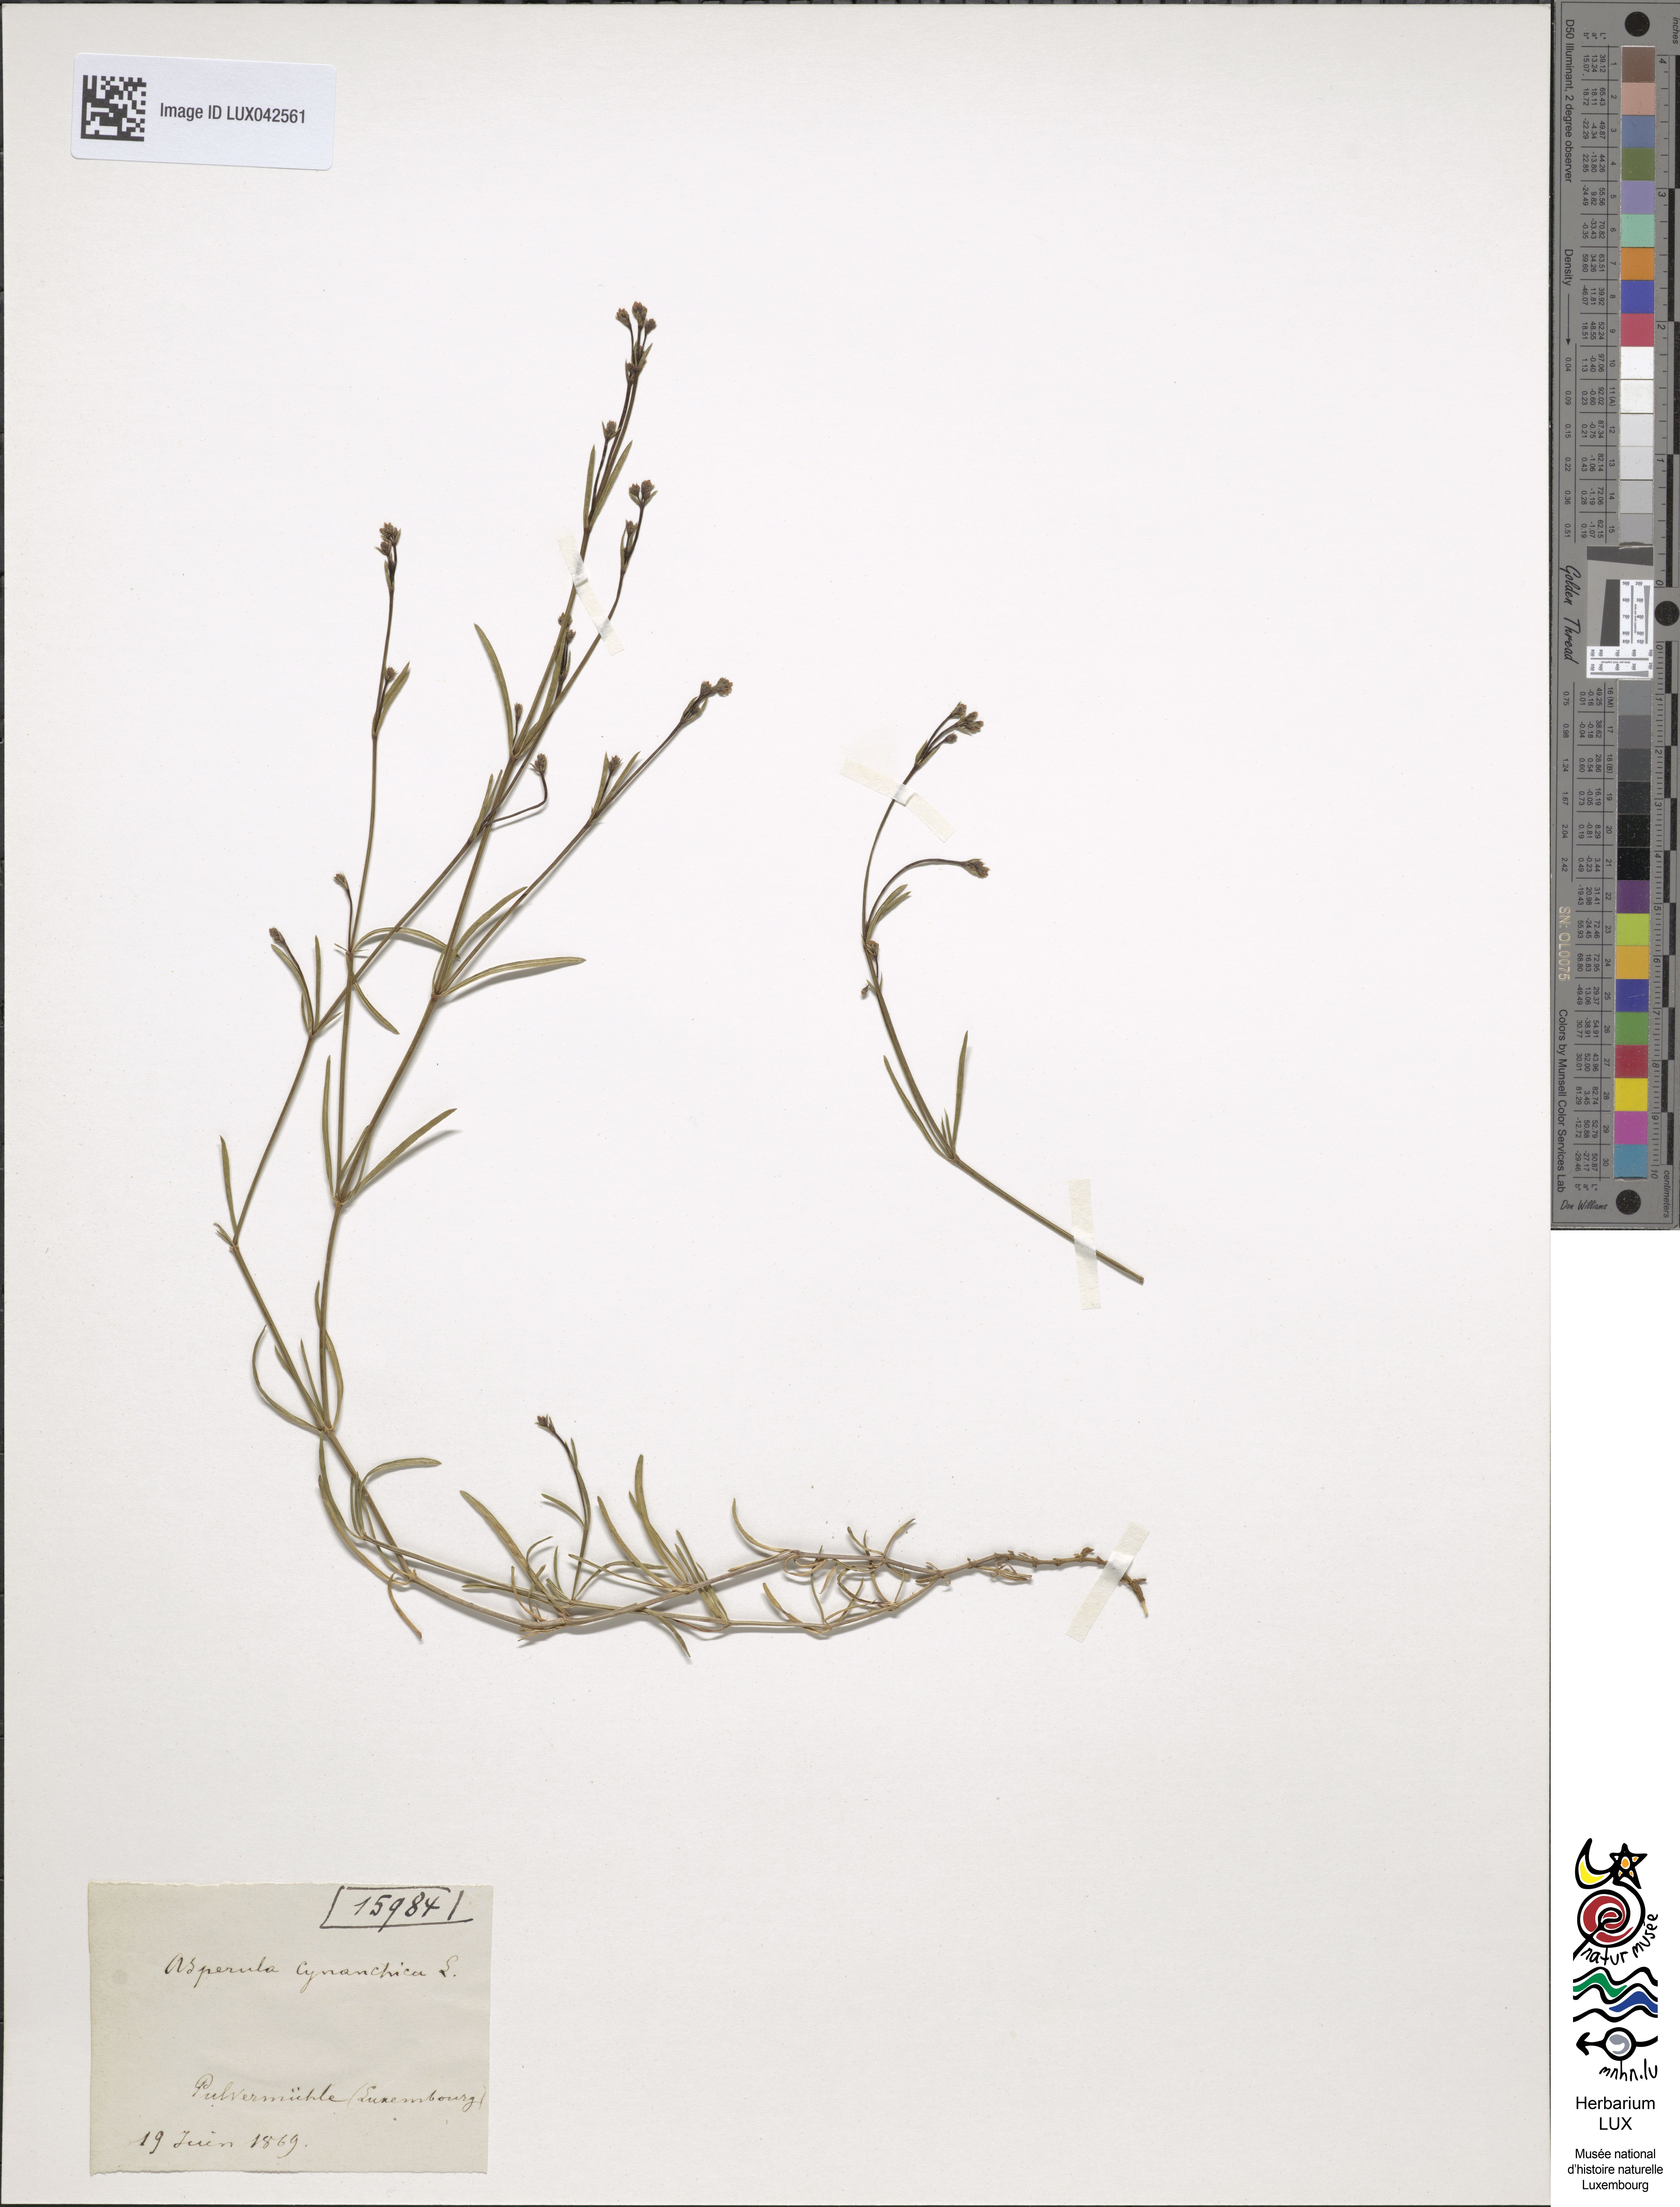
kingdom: Plantae
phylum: Tracheophyta
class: Magnoliopsida
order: Gentianales
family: Rubiaceae
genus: Cynanchica
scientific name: Cynanchica pyrenaica
